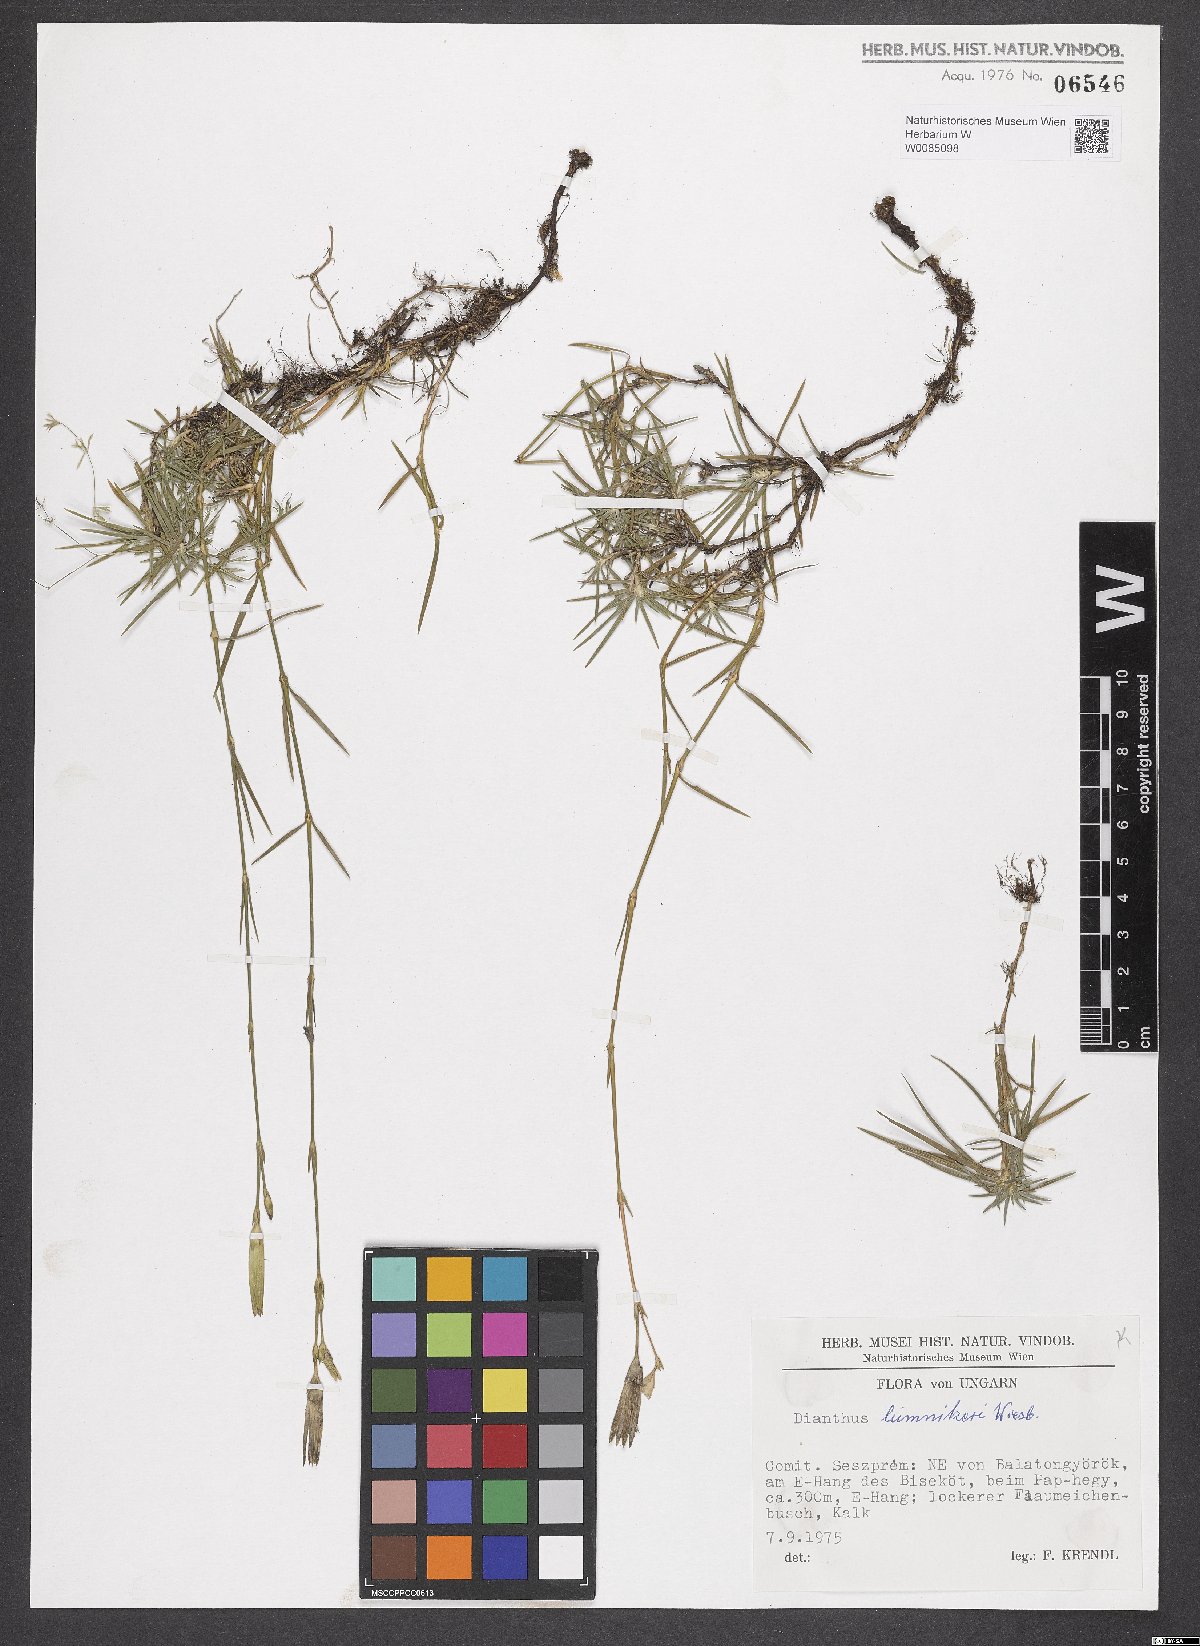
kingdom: Plantae
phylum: Tracheophyta
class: Magnoliopsida
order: Caryophyllales
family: Caryophyllaceae
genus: Dianthus
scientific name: Dianthus praecox
